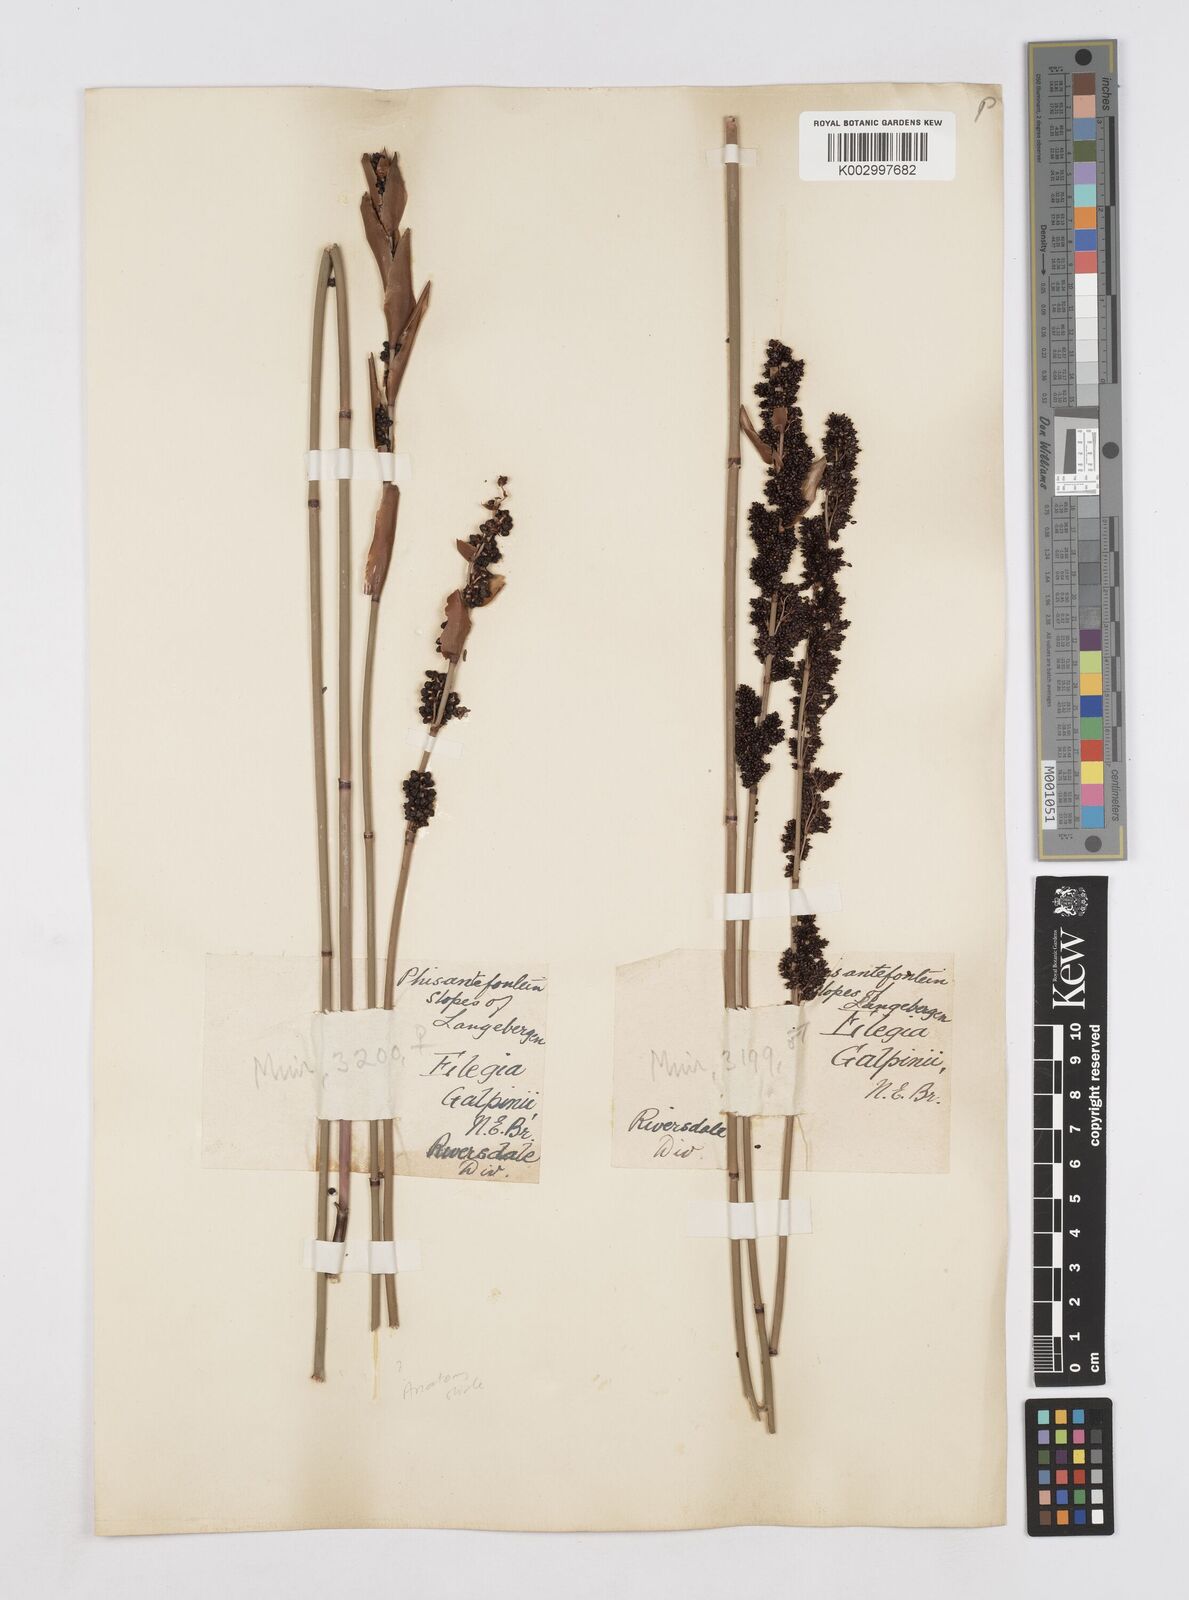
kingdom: Plantae
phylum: Tracheophyta
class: Liliopsida
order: Poales
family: Restionaceae
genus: Elegia
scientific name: Elegia galpinii
